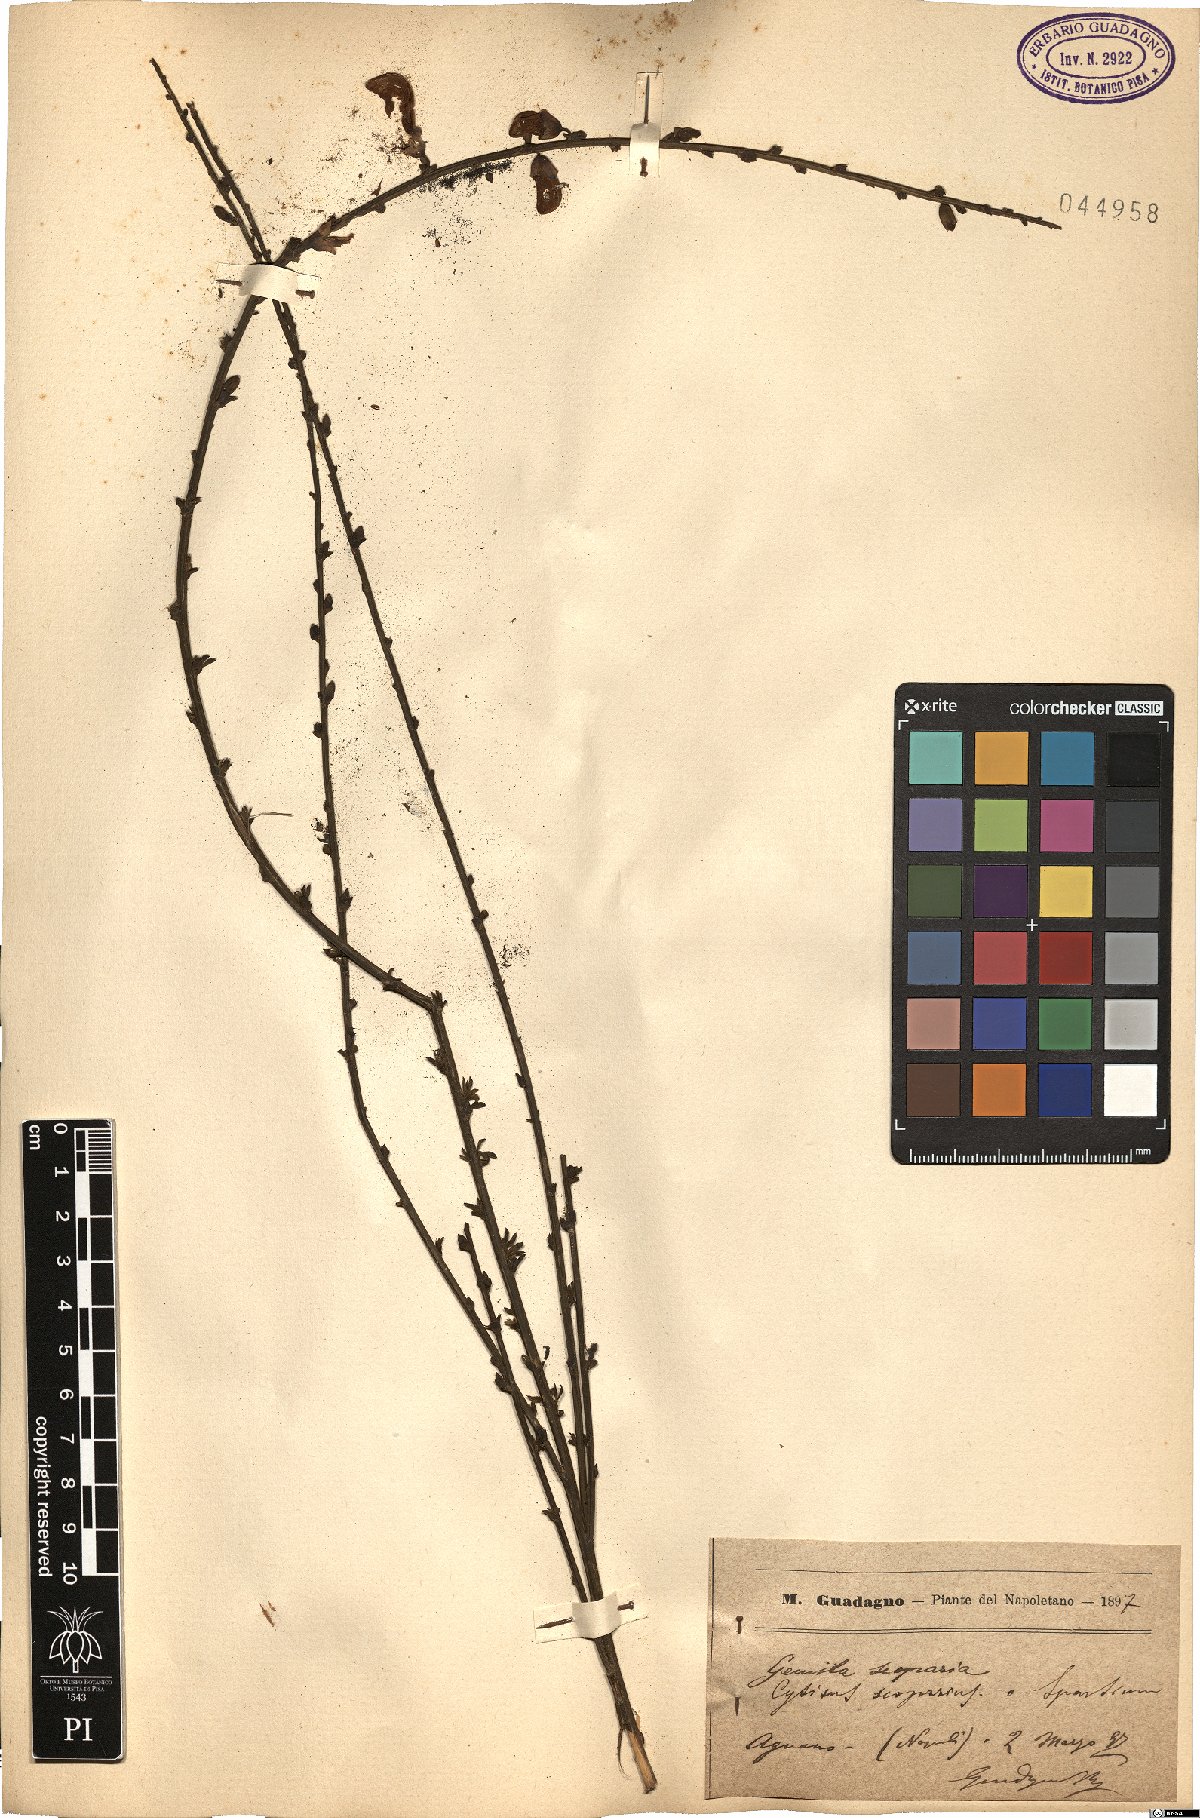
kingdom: Plantae
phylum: Tracheophyta
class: Magnoliopsida
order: Fabales
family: Fabaceae
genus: Cytisus
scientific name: Cytisus scoparius
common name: Scotch broom
